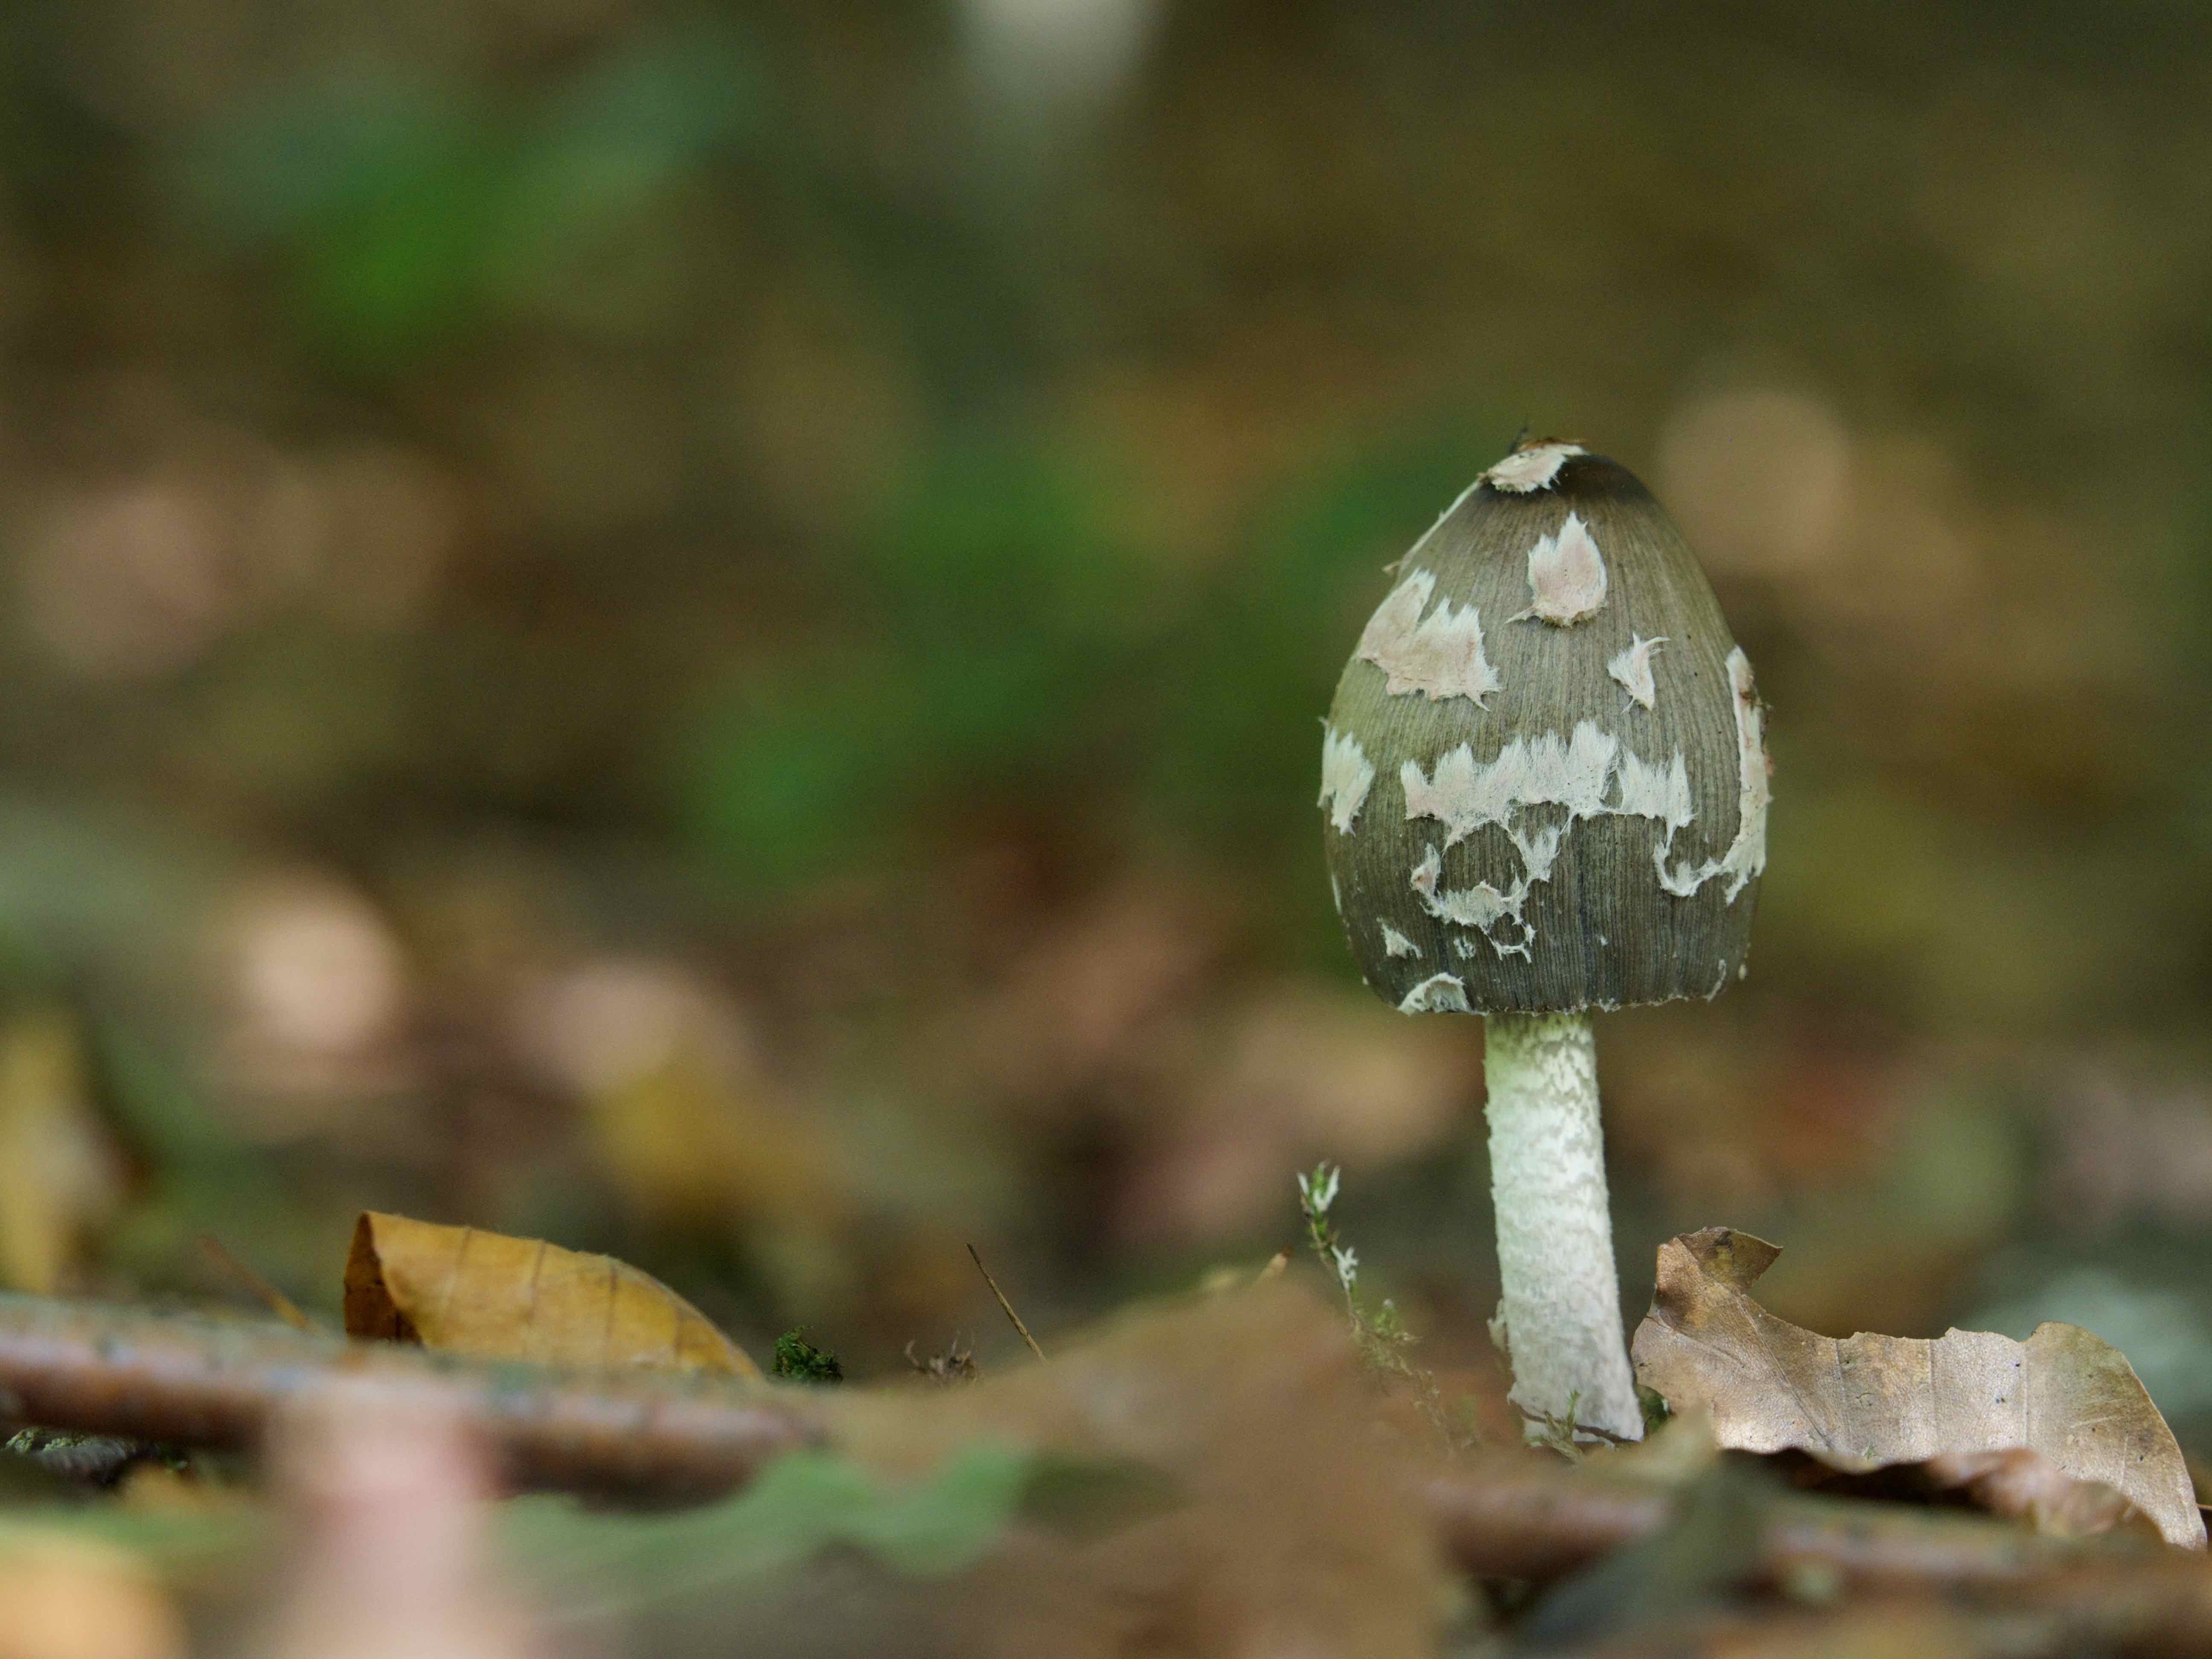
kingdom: Fungi
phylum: Basidiomycota
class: Agaricomycetes
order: Agaricales
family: Psathyrellaceae
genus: Coprinopsis
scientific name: Coprinopsis picacea
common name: skade-blækhat
